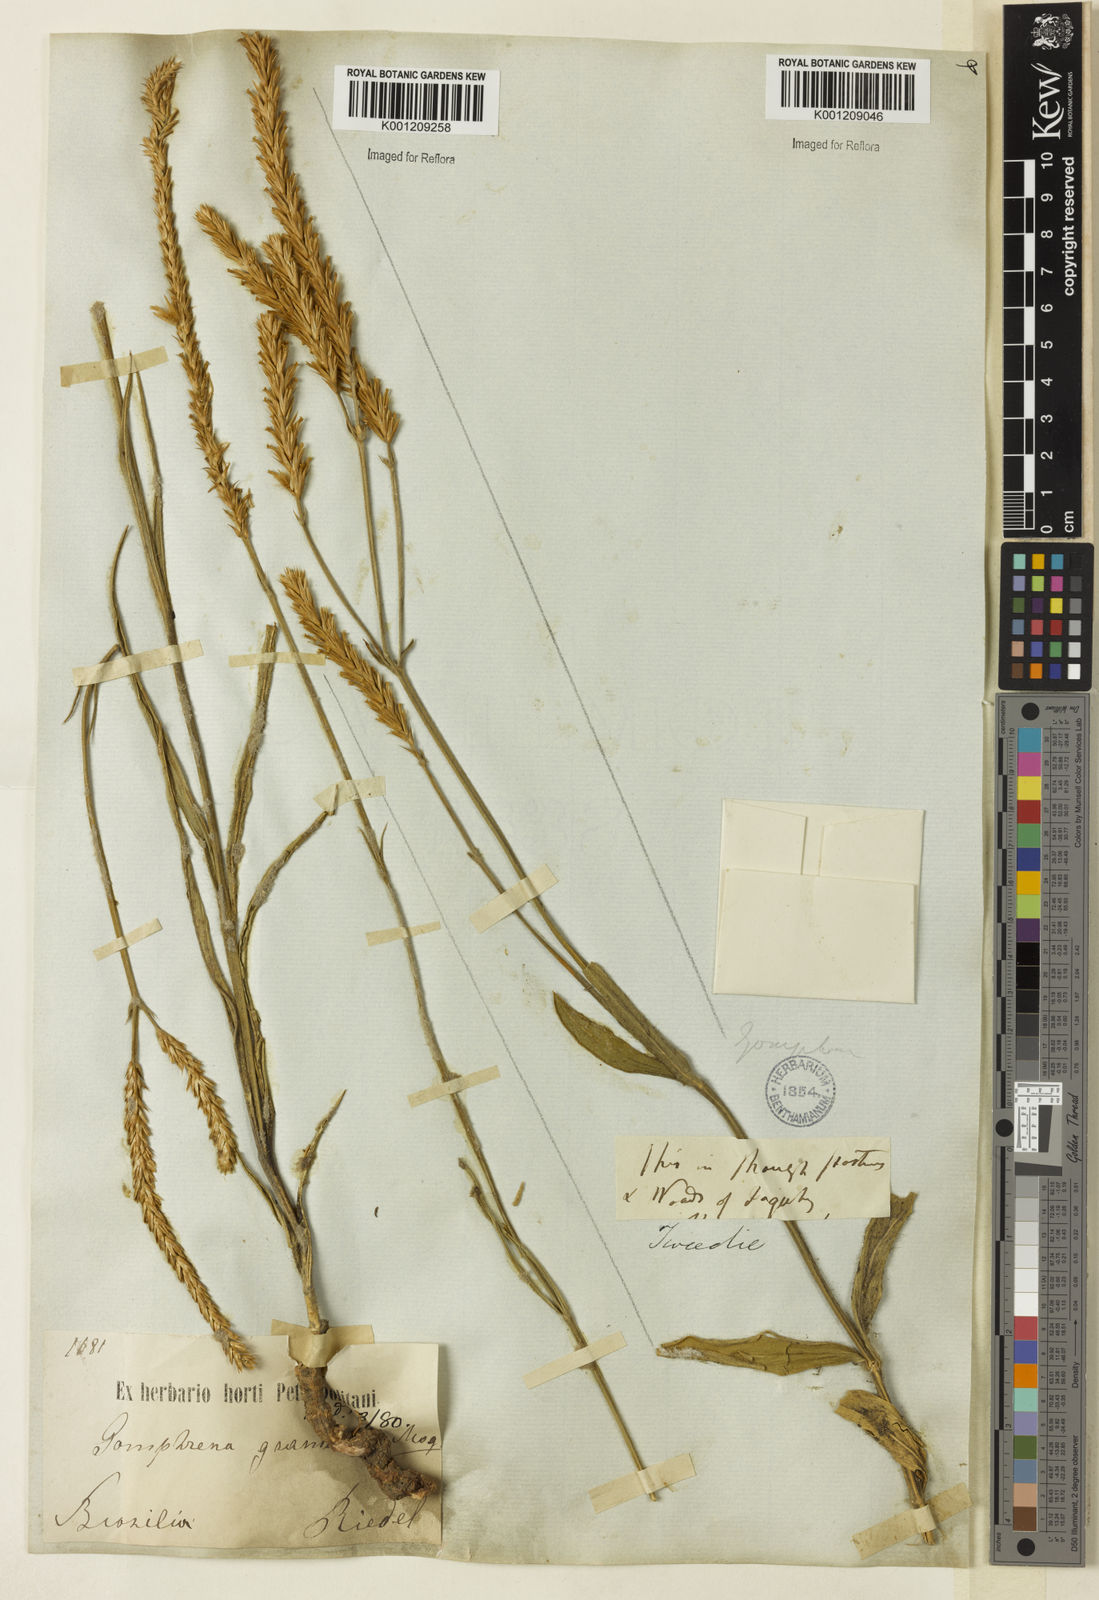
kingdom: Plantae
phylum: Tracheophyta
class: Magnoliopsida
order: Caryophyllales
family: Amaranthaceae
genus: Gomphrena
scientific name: Gomphrena graminea
